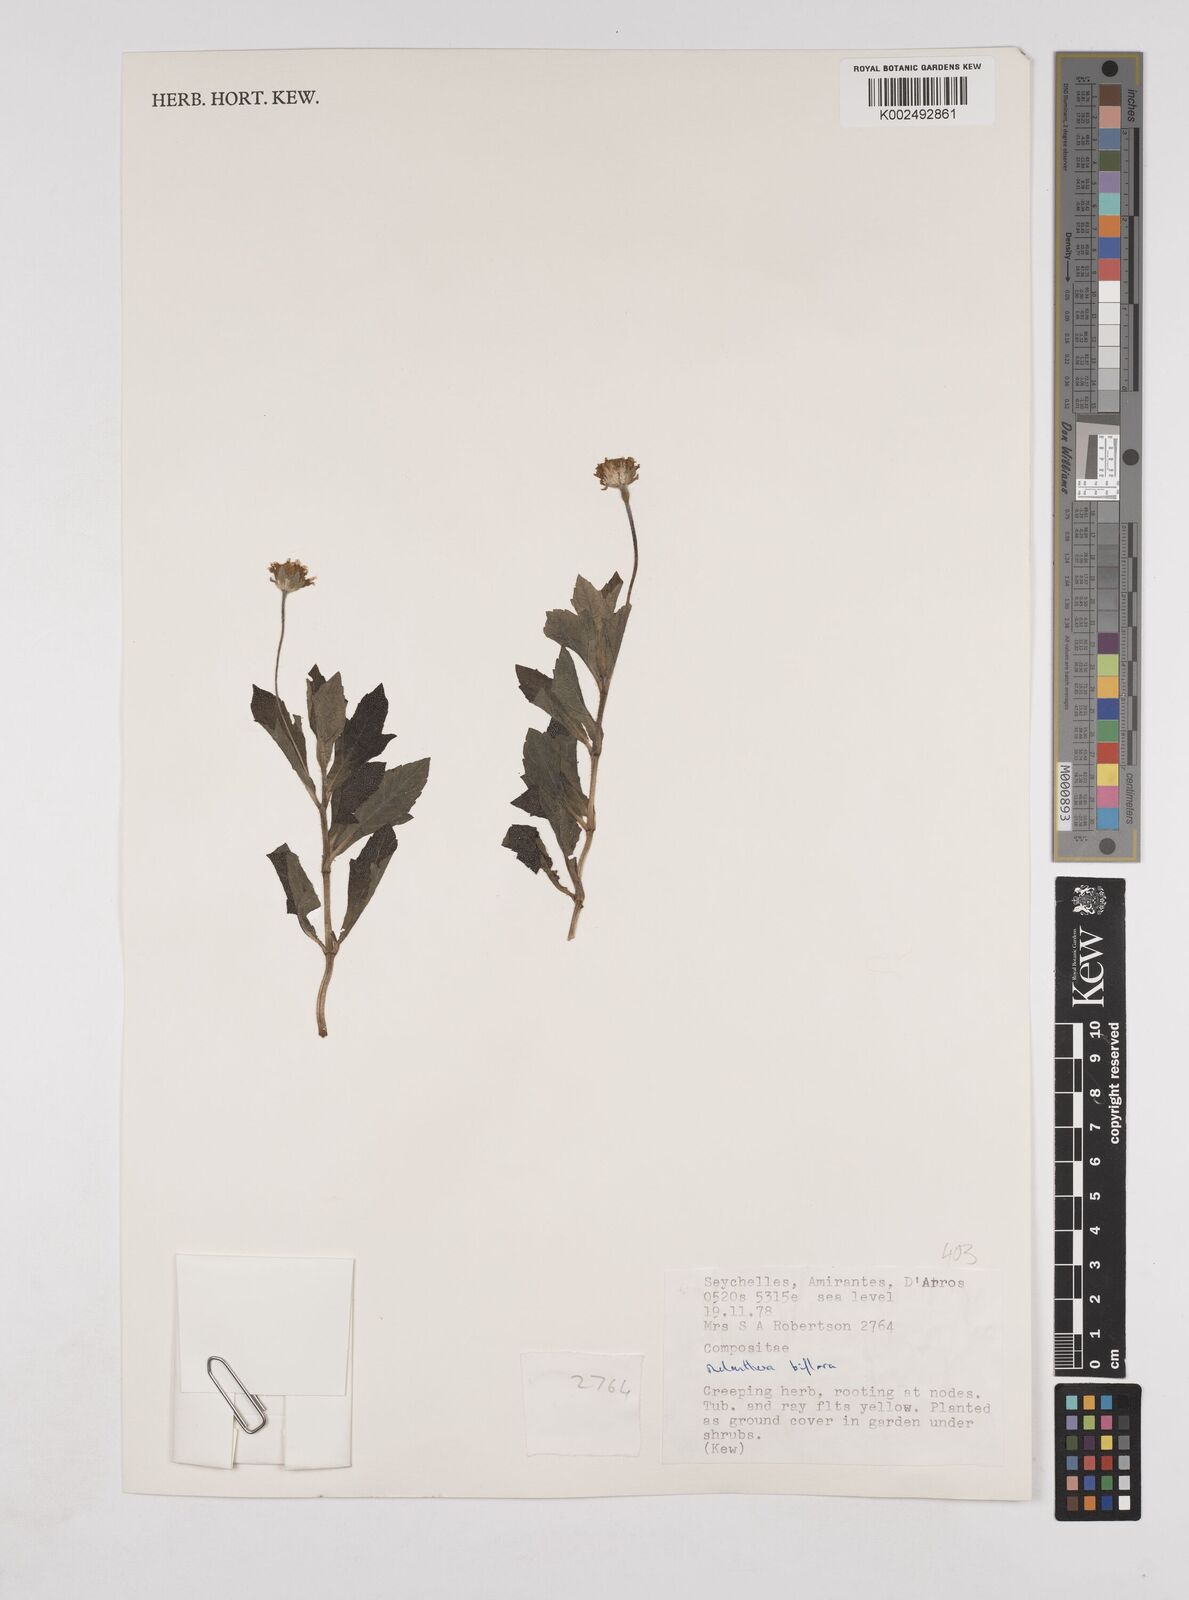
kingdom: Plantae
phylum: Tracheophyta
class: Magnoliopsida
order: Asterales
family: Asteraceae
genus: Wollastonia
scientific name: Wollastonia biflora
